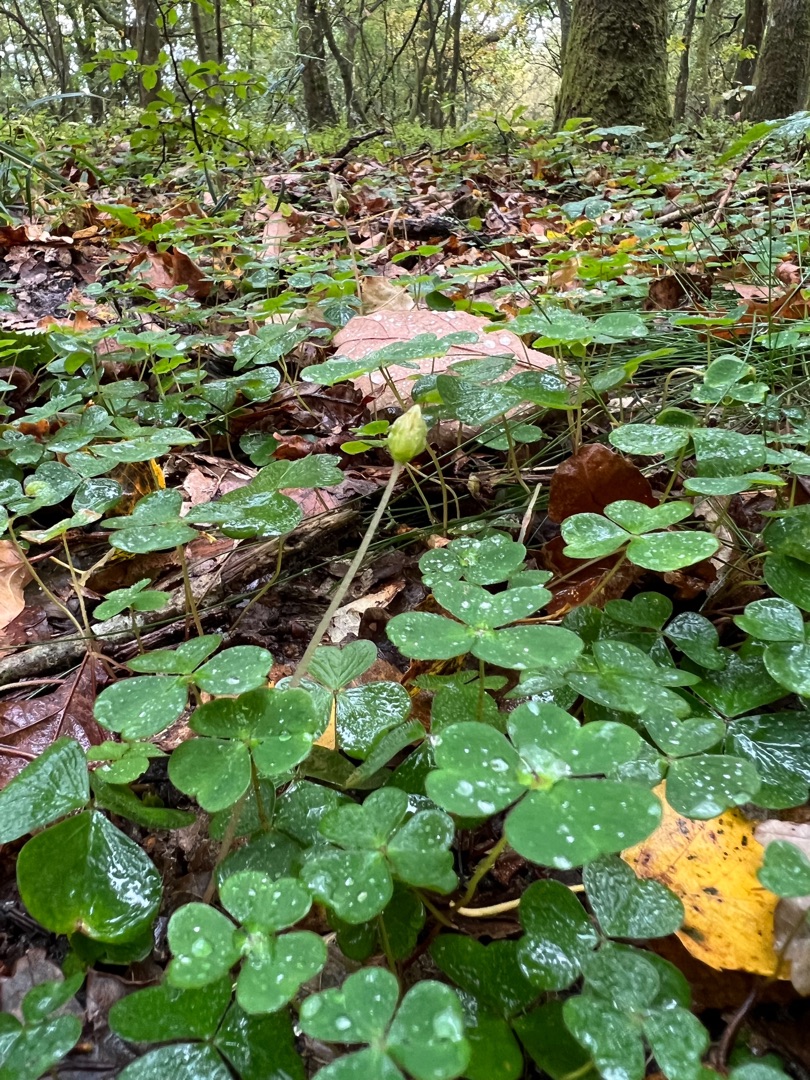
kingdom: Plantae
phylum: Tracheophyta
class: Magnoliopsida
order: Oxalidales
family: Oxalidaceae
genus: Oxalis
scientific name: Oxalis acetosella
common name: Skovsyre
